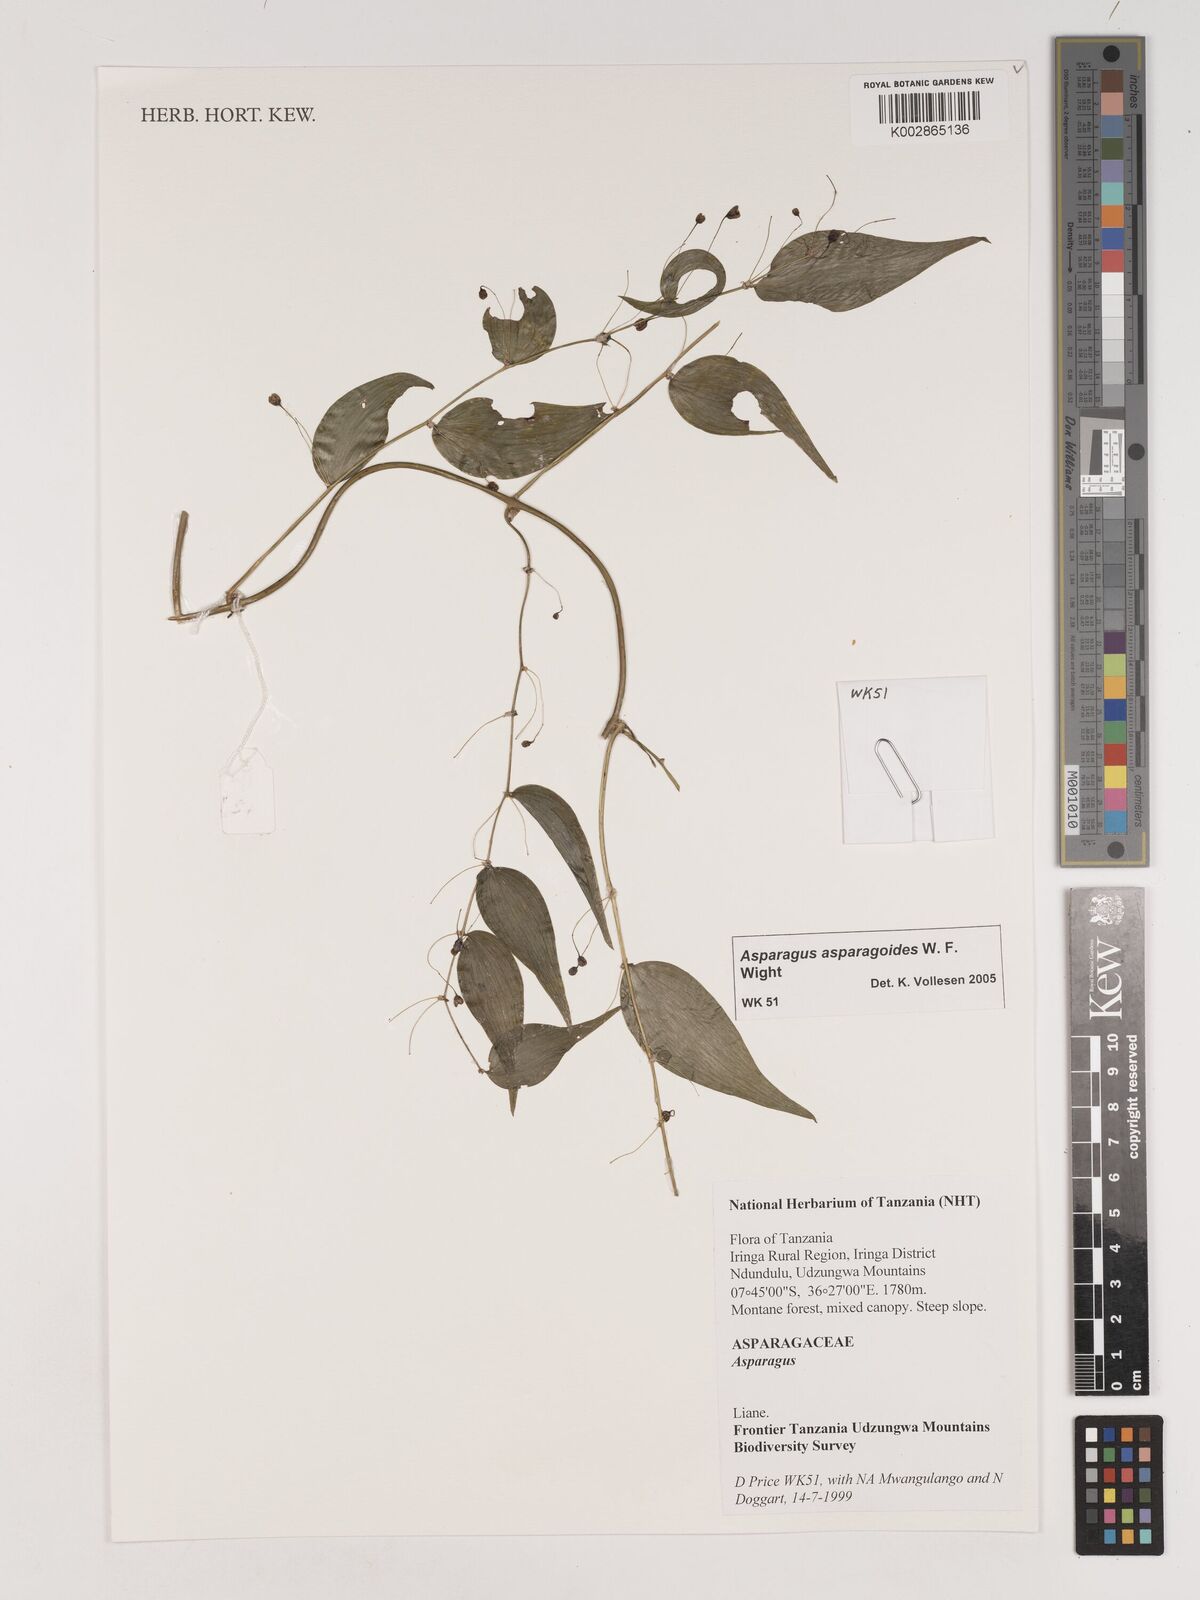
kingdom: Plantae
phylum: Tracheophyta
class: Liliopsida
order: Asparagales
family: Asparagaceae
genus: Asparagus
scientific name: Asparagus asparagoides
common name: African asparagus fern
